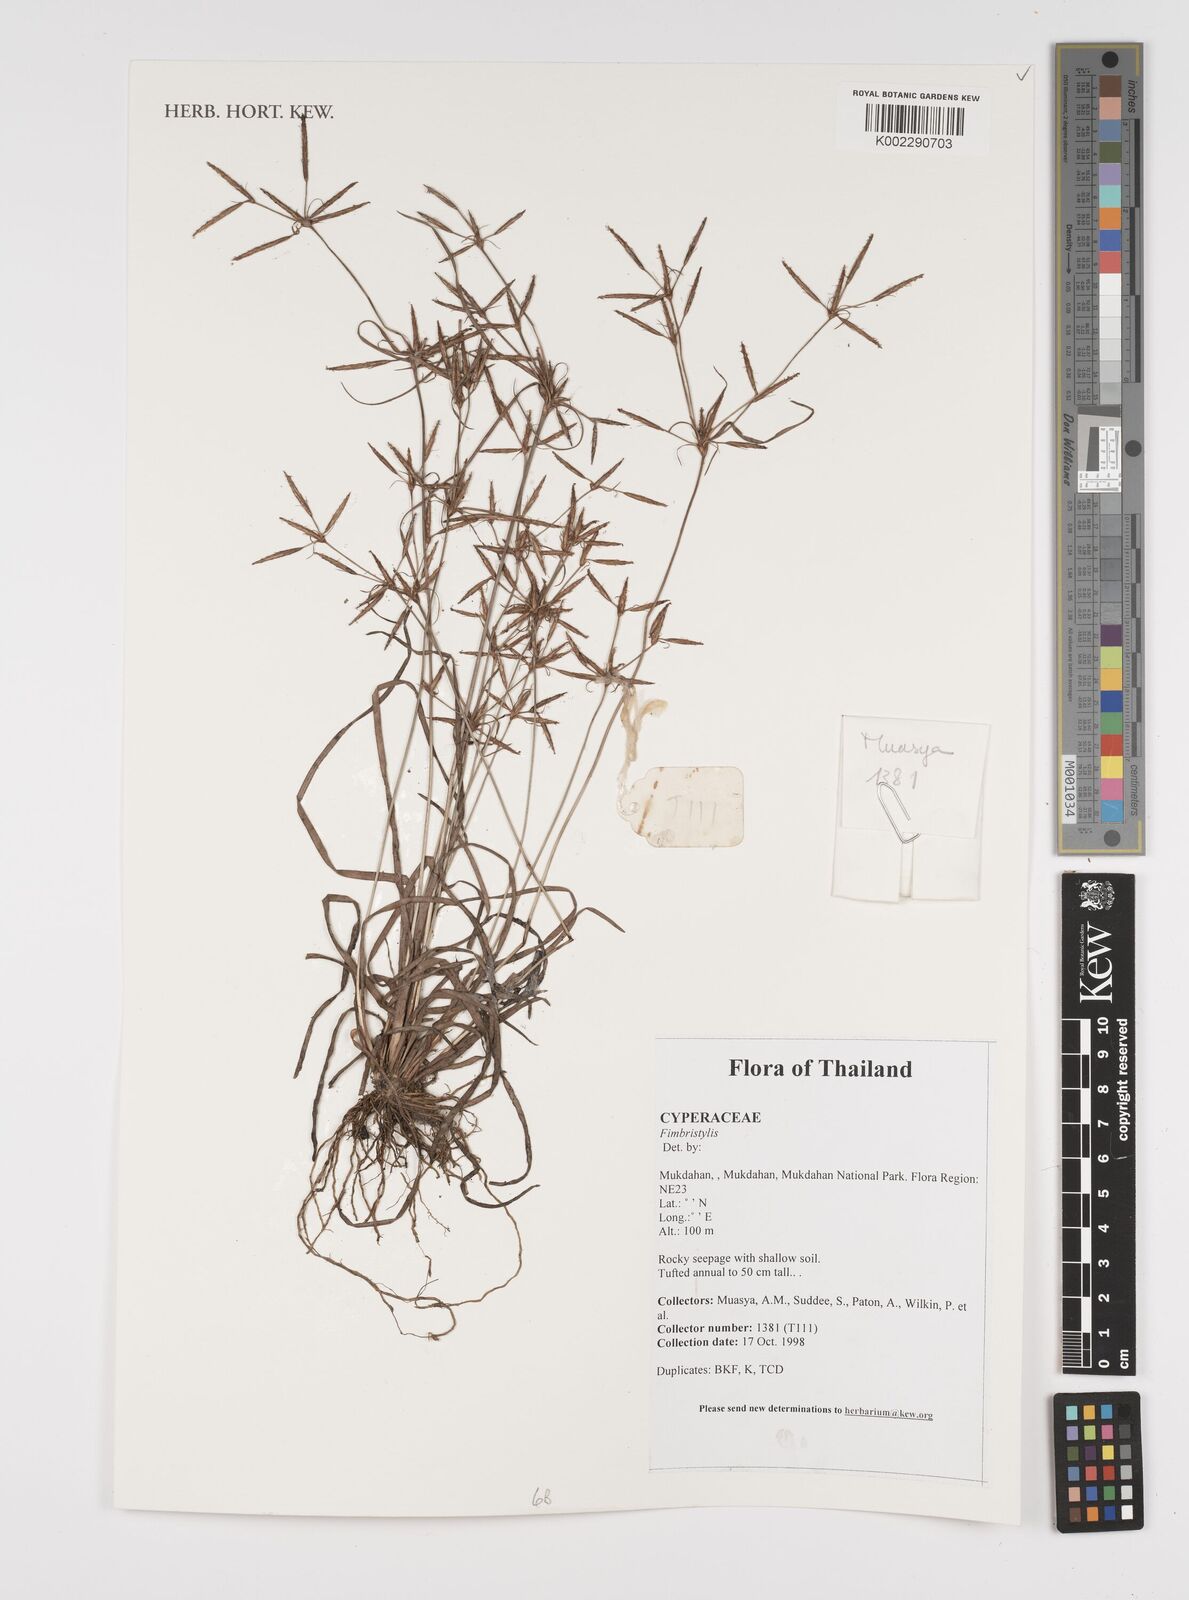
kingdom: Plantae
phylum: Tracheophyta
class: Liliopsida
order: Poales
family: Cyperaceae
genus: Fimbristylis
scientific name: Fimbristylis
